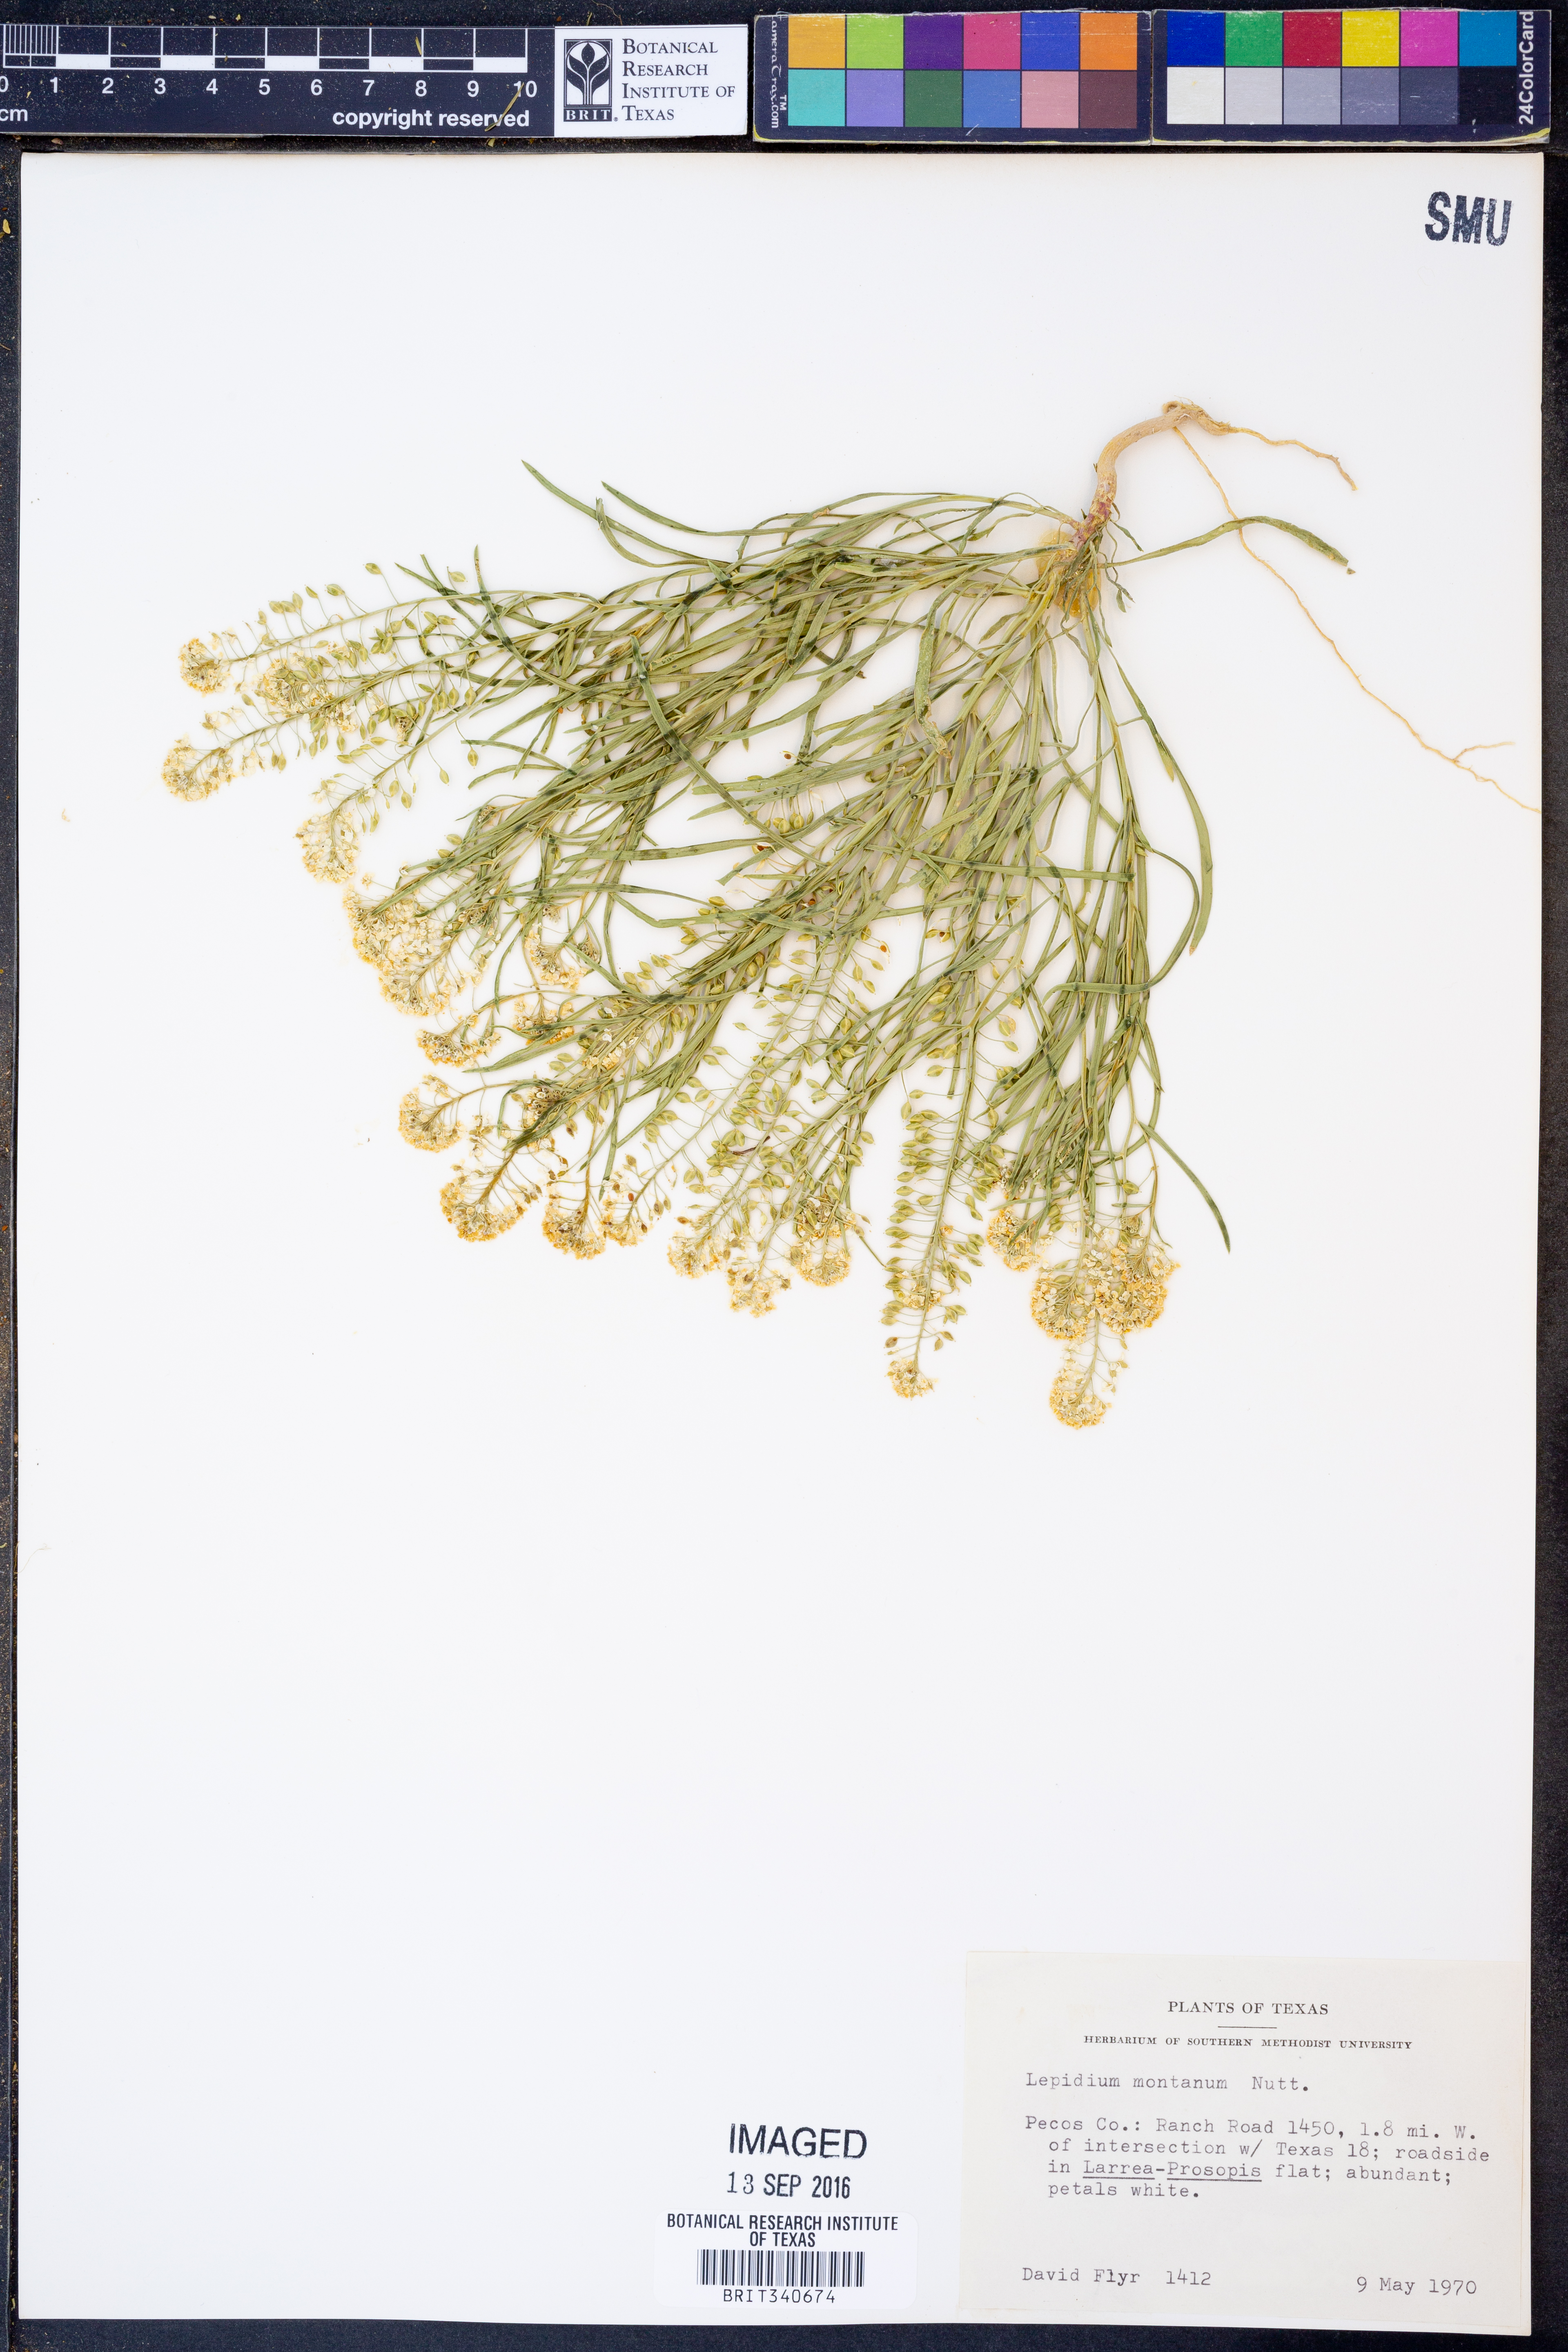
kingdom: Plantae
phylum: Tracheophyta
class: Magnoliopsida
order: Brassicales
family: Brassicaceae
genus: Lepidium
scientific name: Lepidium montanum
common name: Mountain pepperplant
